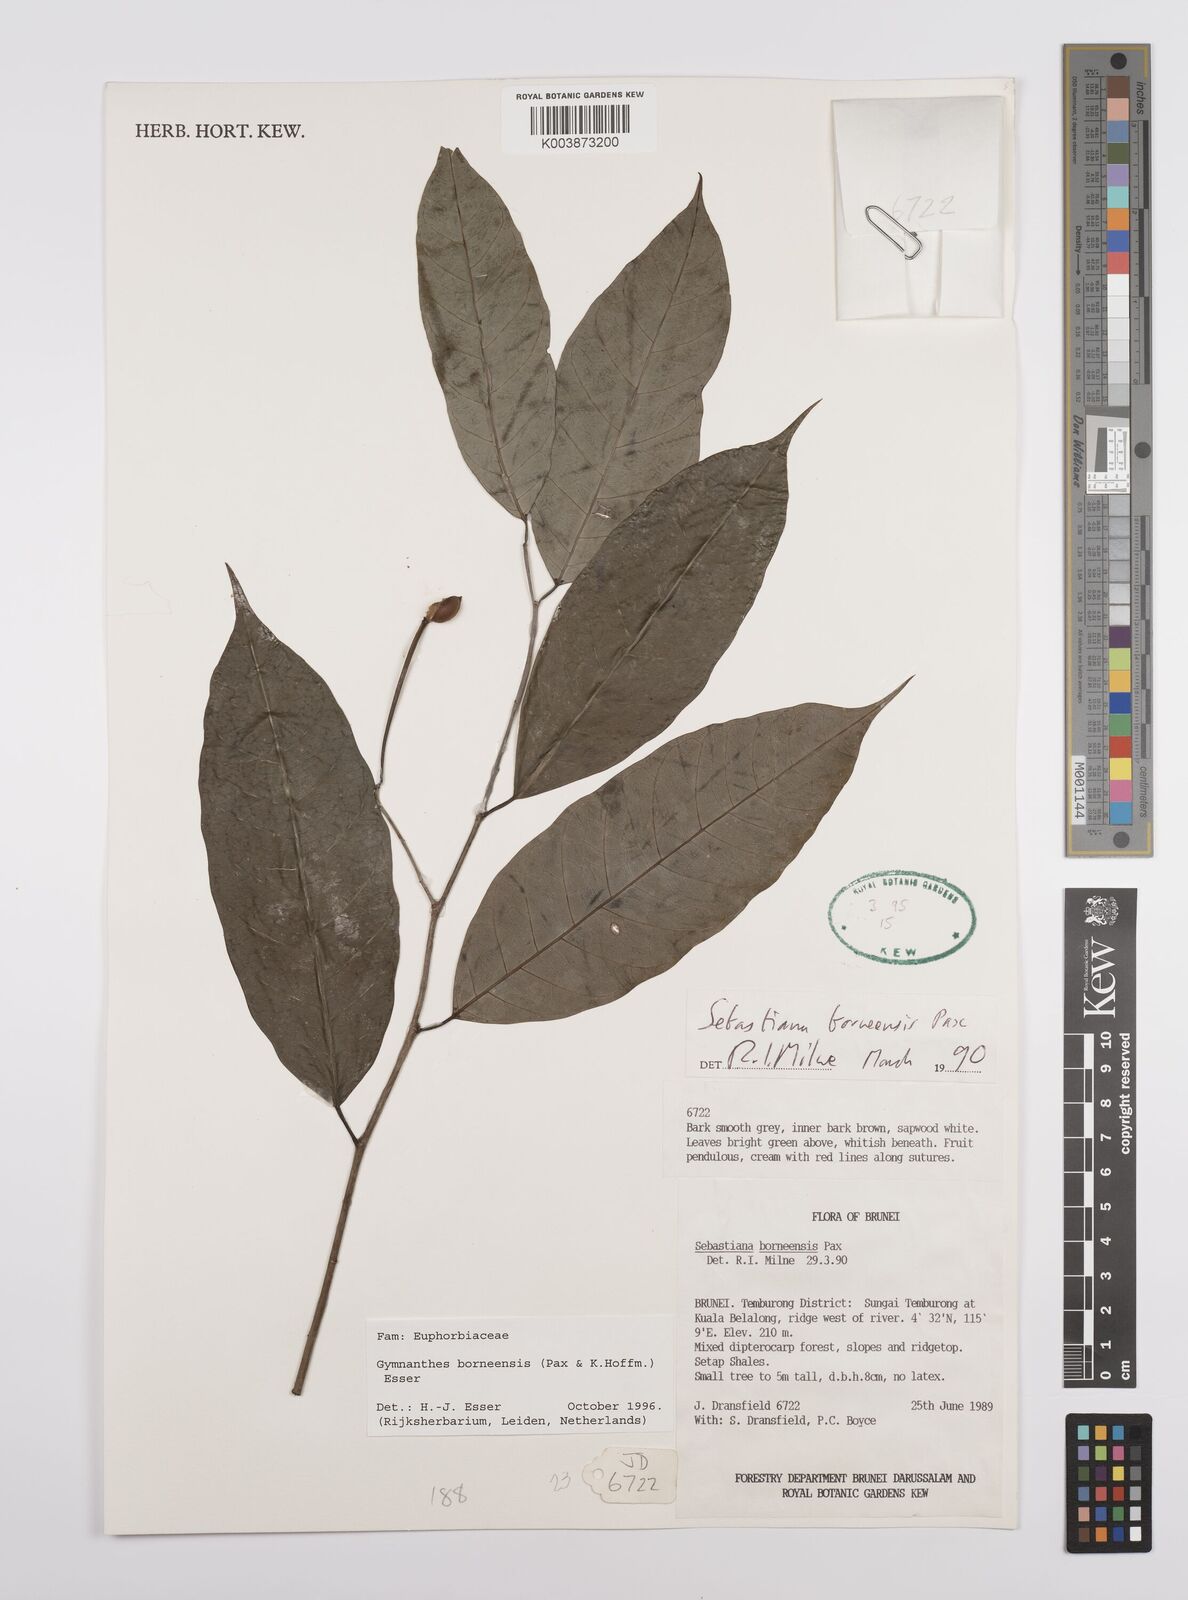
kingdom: Plantae
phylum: Tracheophyta
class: Magnoliopsida
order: Malpighiales
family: Euphorbiaceae
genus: Gymnanthes
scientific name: Gymnanthes borneensis
